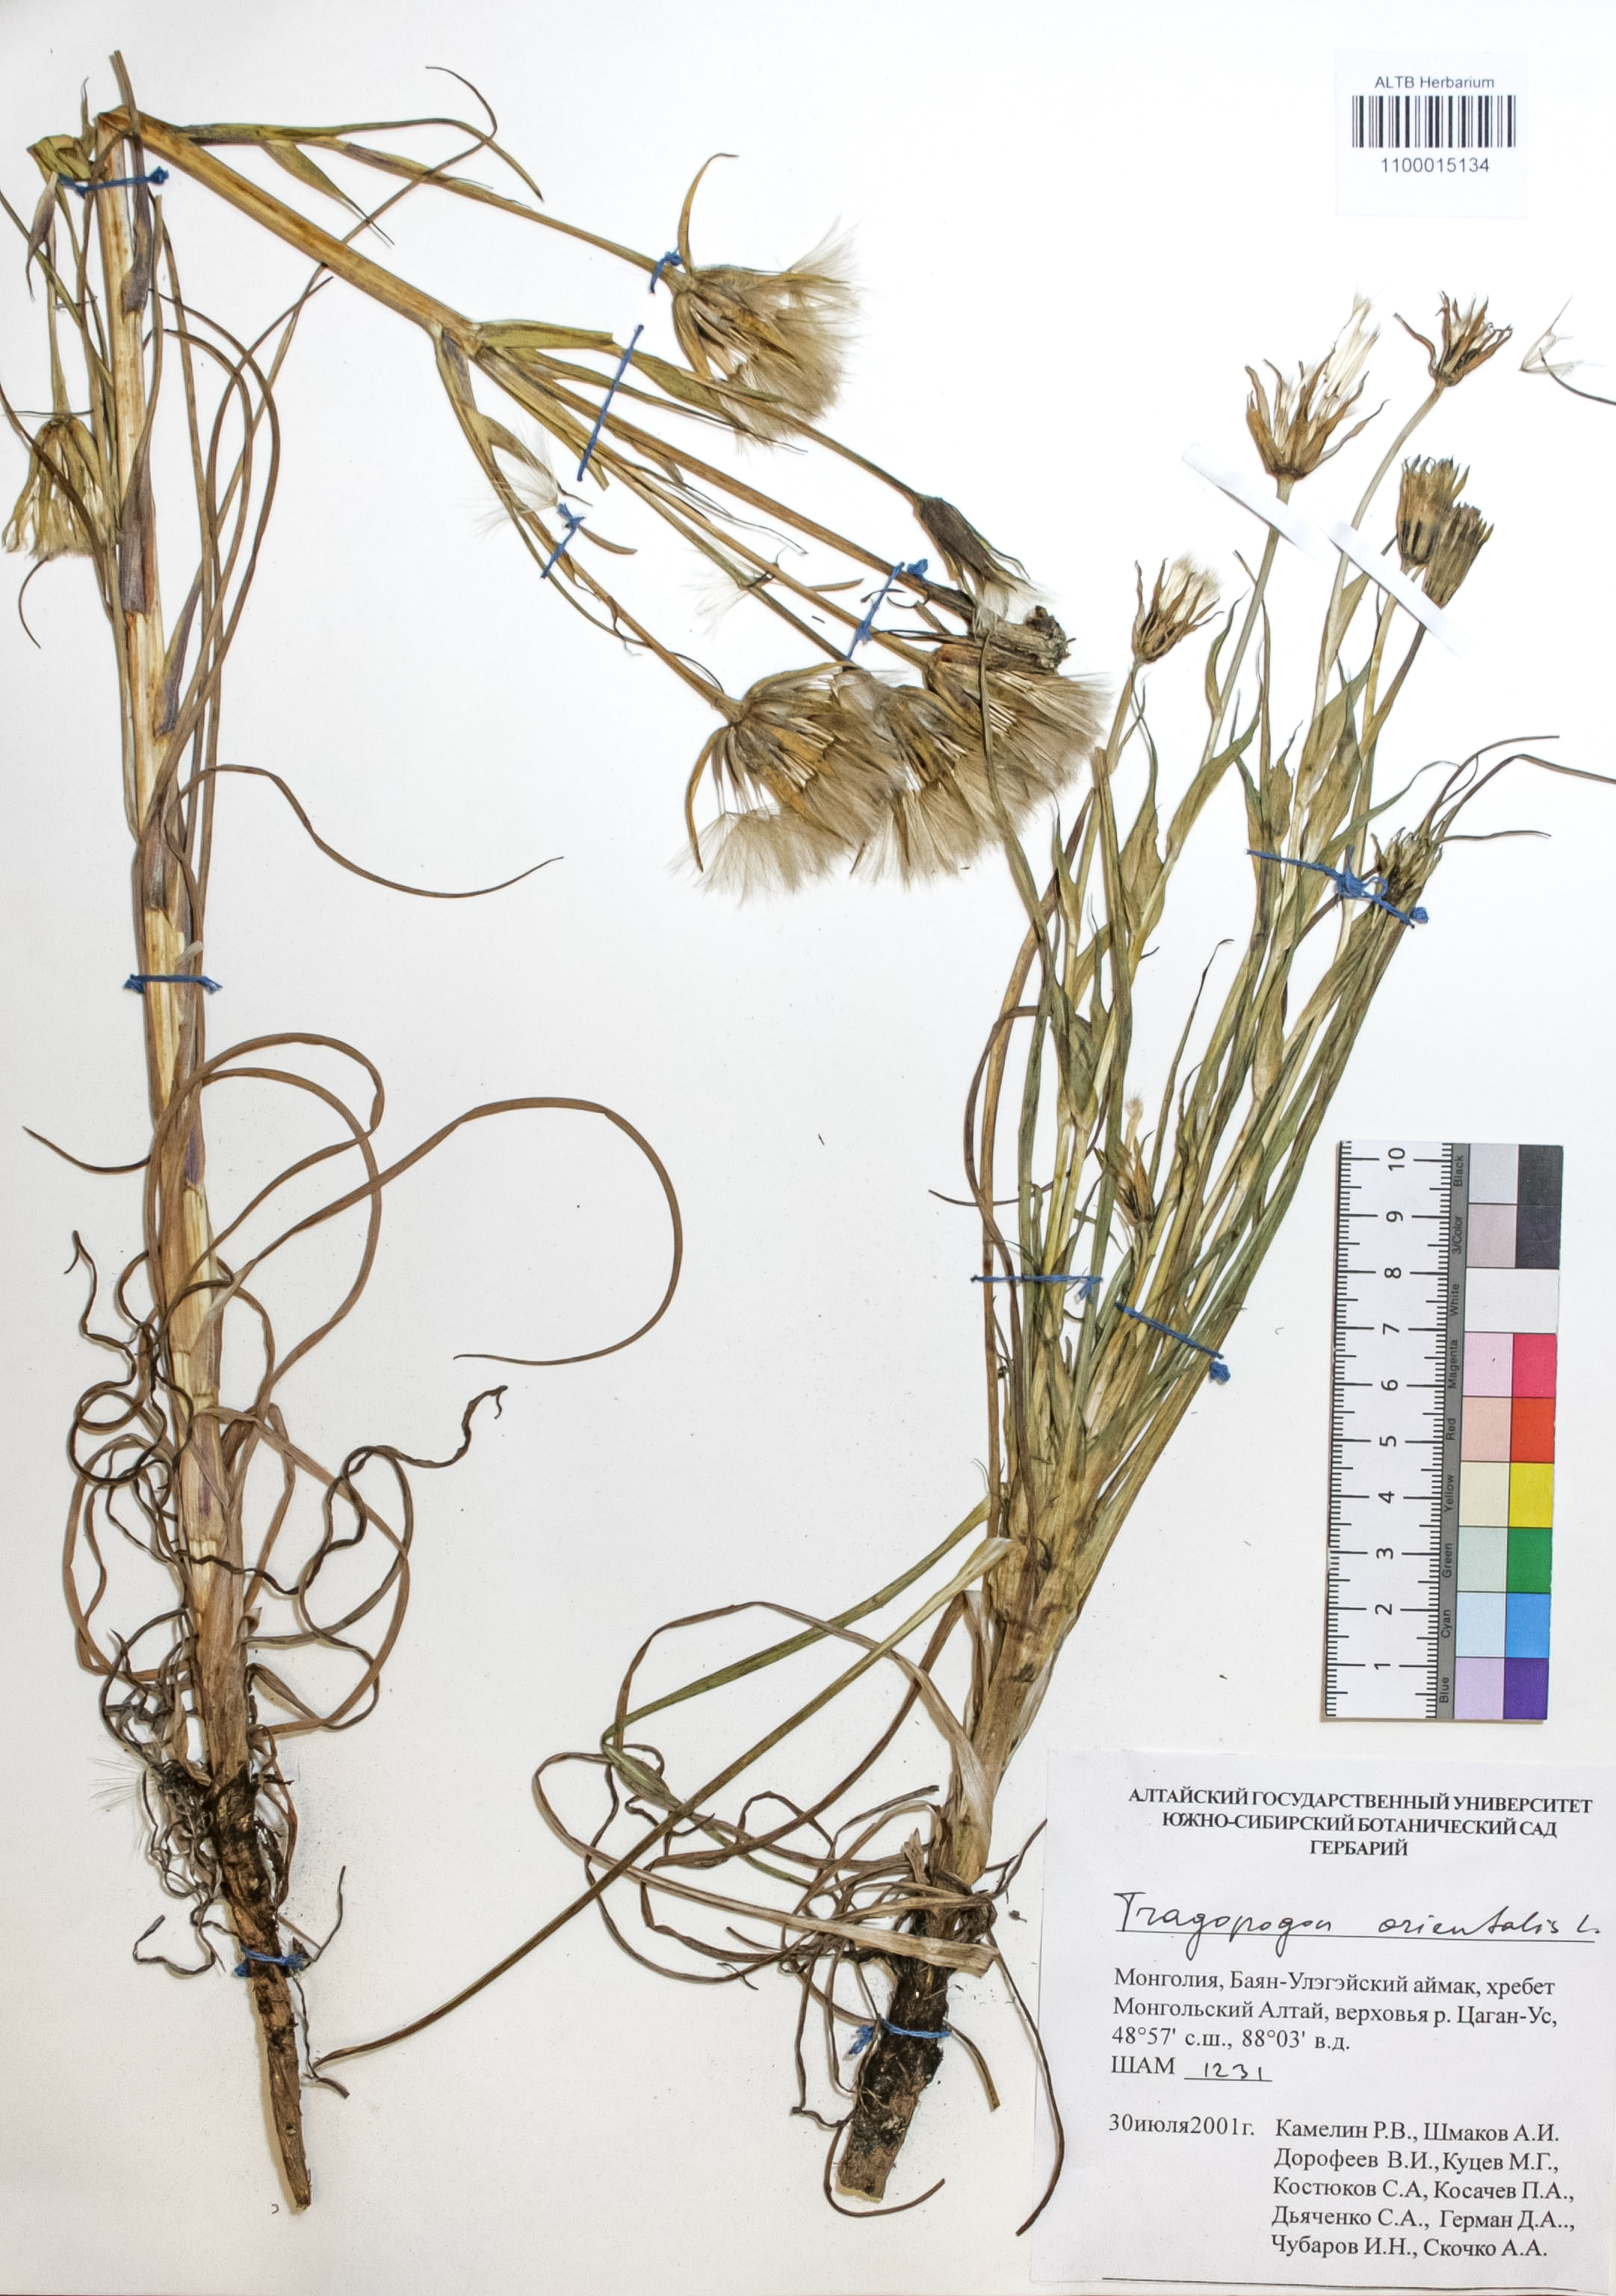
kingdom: Plantae
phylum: Tracheophyta
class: Magnoliopsida
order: Asterales
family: Asteraceae
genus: Tragopogon
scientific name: Tragopogon orientalis
